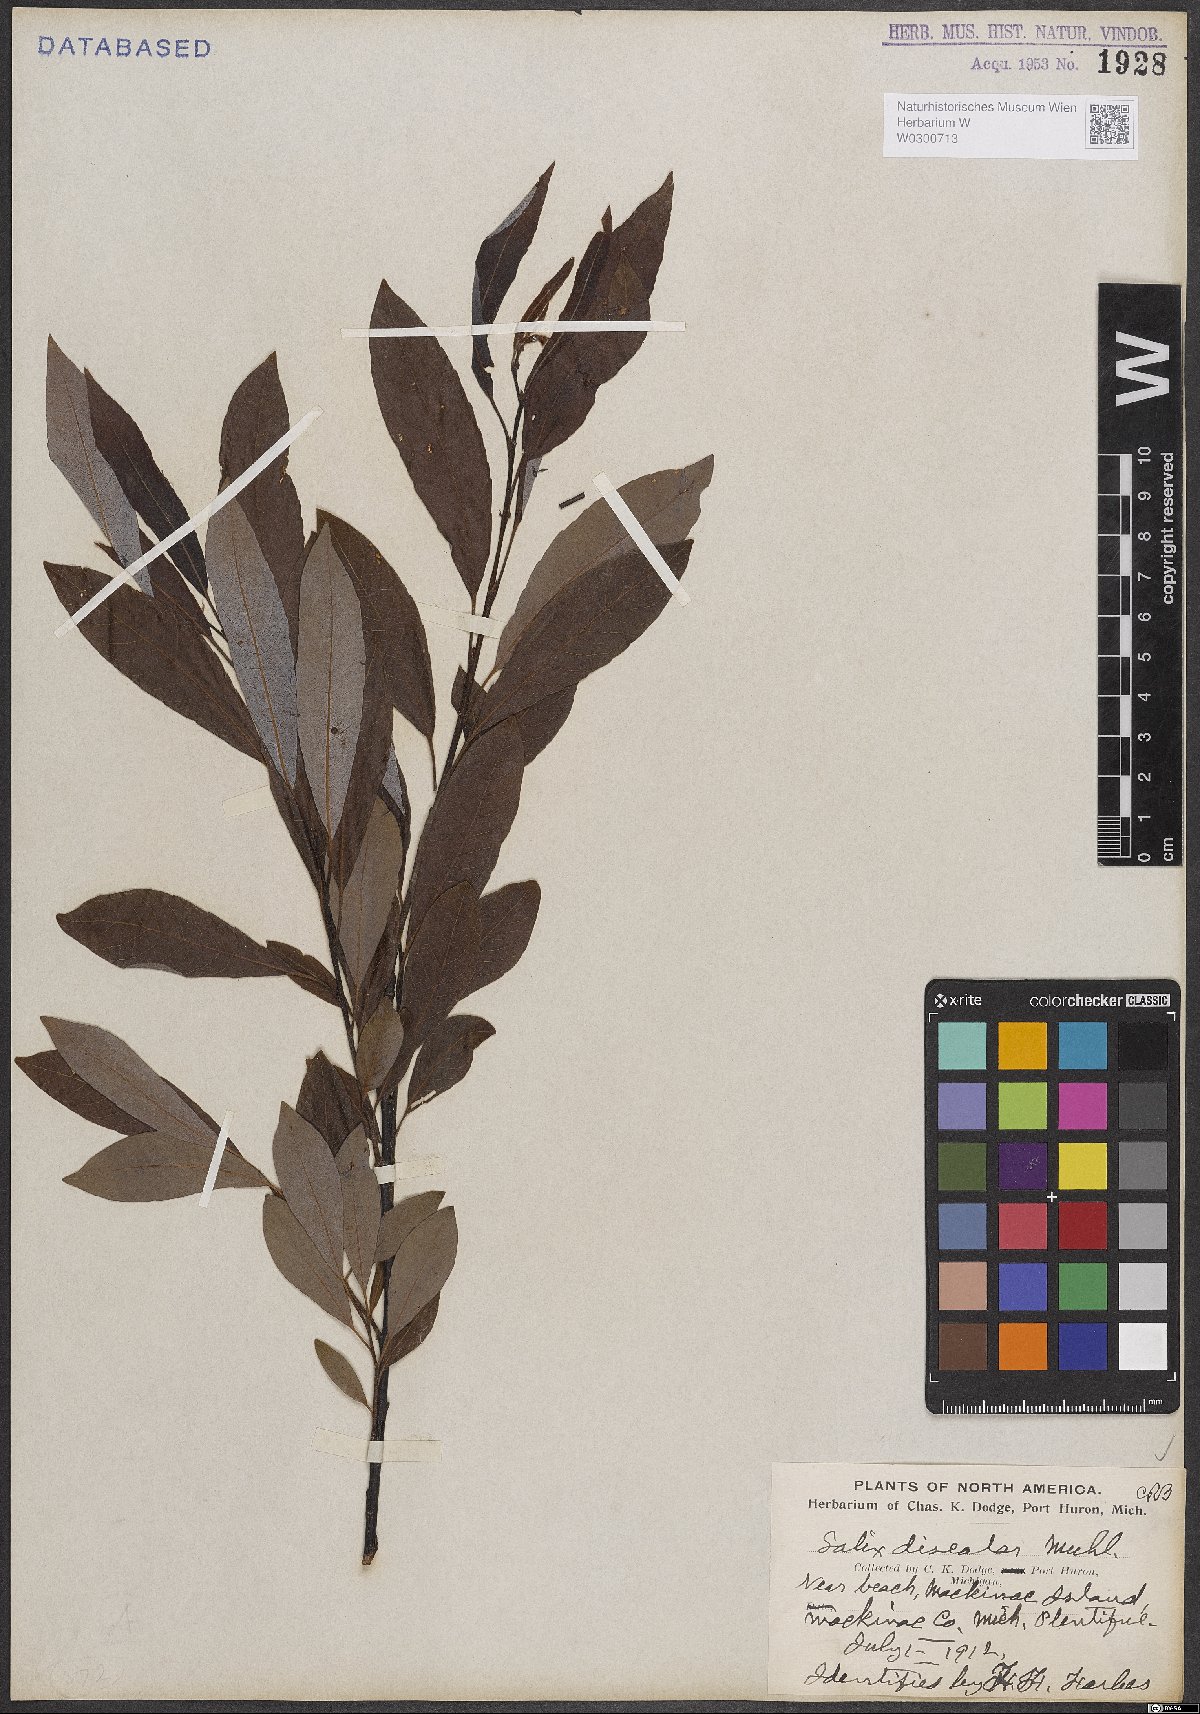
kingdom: Plantae
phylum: Tracheophyta
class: Magnoliopsida
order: Malpighiales
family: Salicaceae
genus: Salix
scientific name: Salix discolor
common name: Glaucous willow
